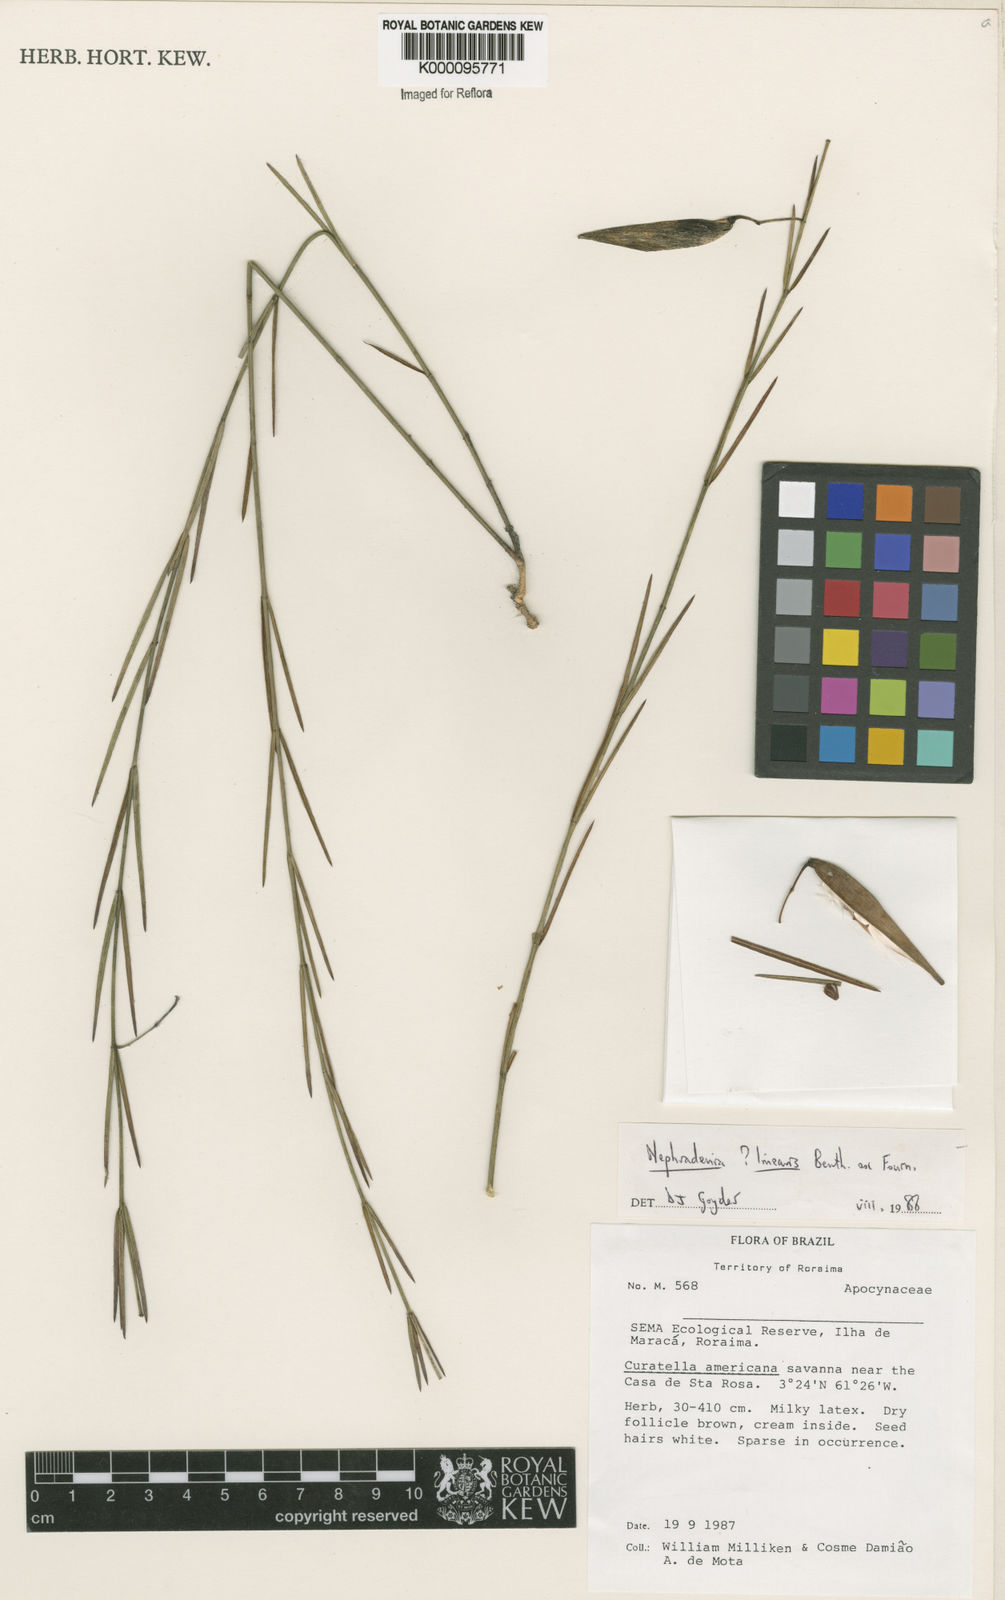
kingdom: Plantae
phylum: Tracheophyta
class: Magnoliopsida
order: Gentianales
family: Apocynaceae
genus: Blepharodon
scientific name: Blepharodon lineare
